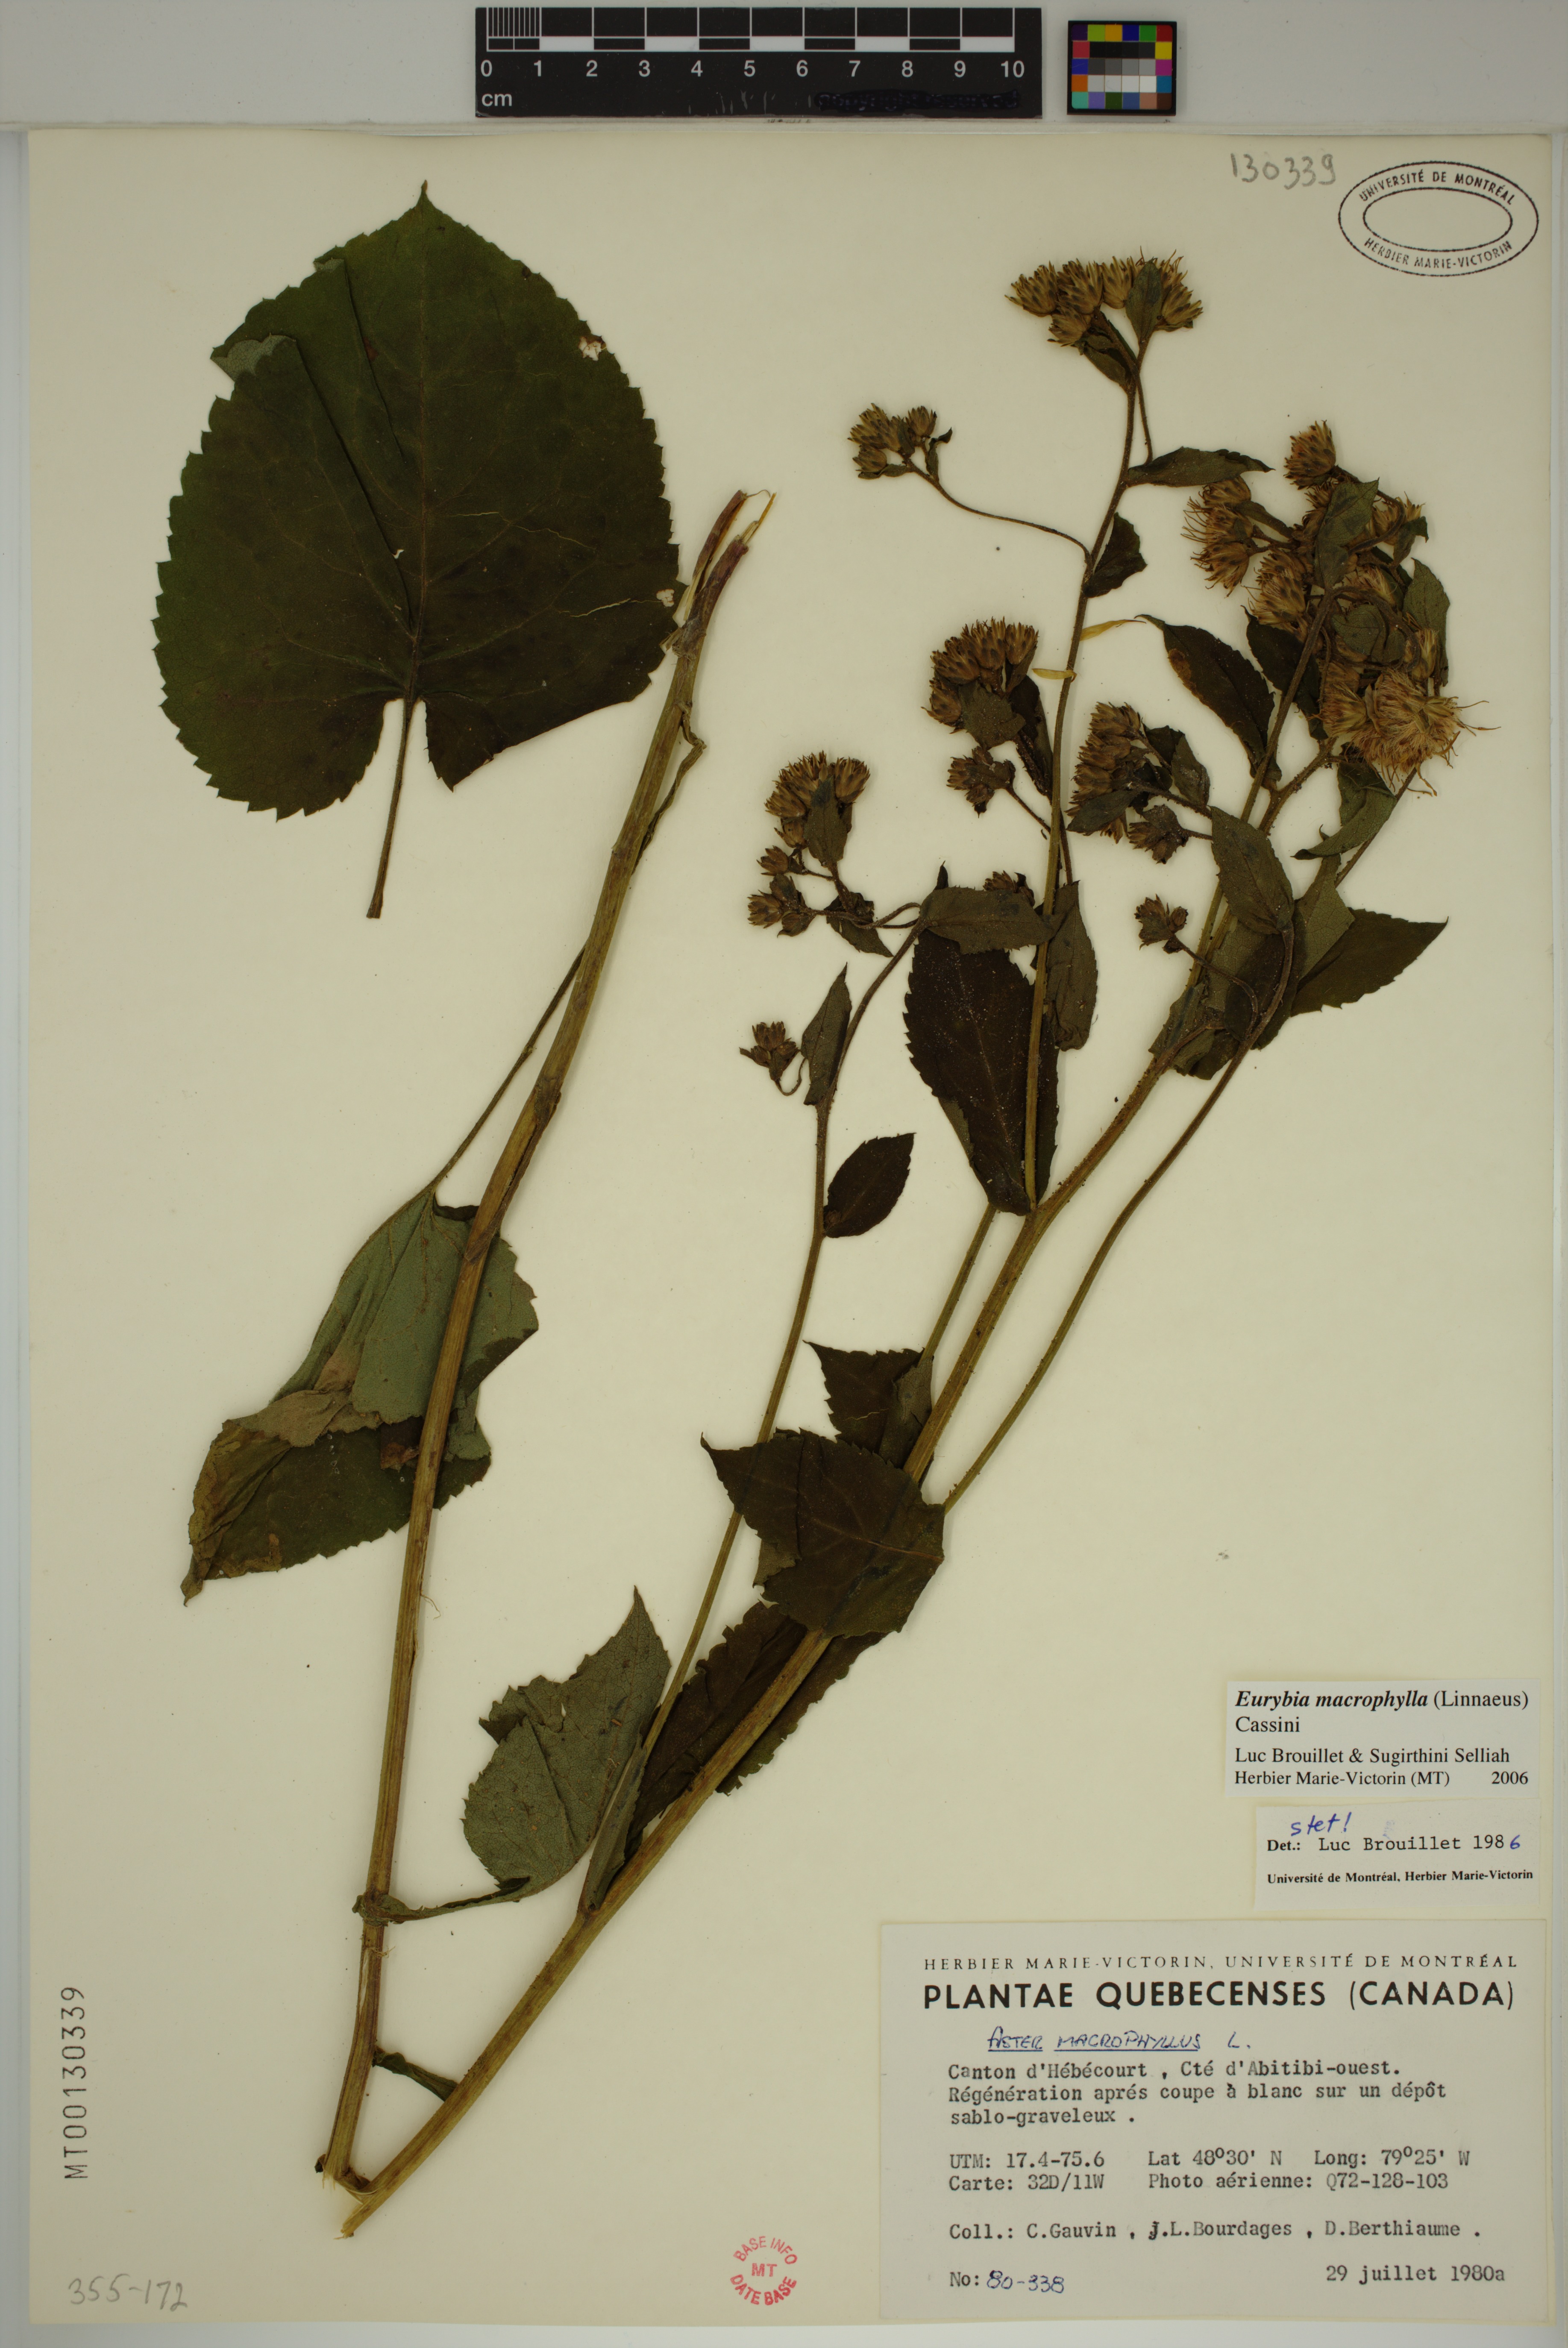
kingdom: Plantae
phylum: Tracheophyta
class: Magnoliopsida
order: Asterales
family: Asteraceae
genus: Eurybia
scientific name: Eurybia macrophylla
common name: Big-leaved aster
